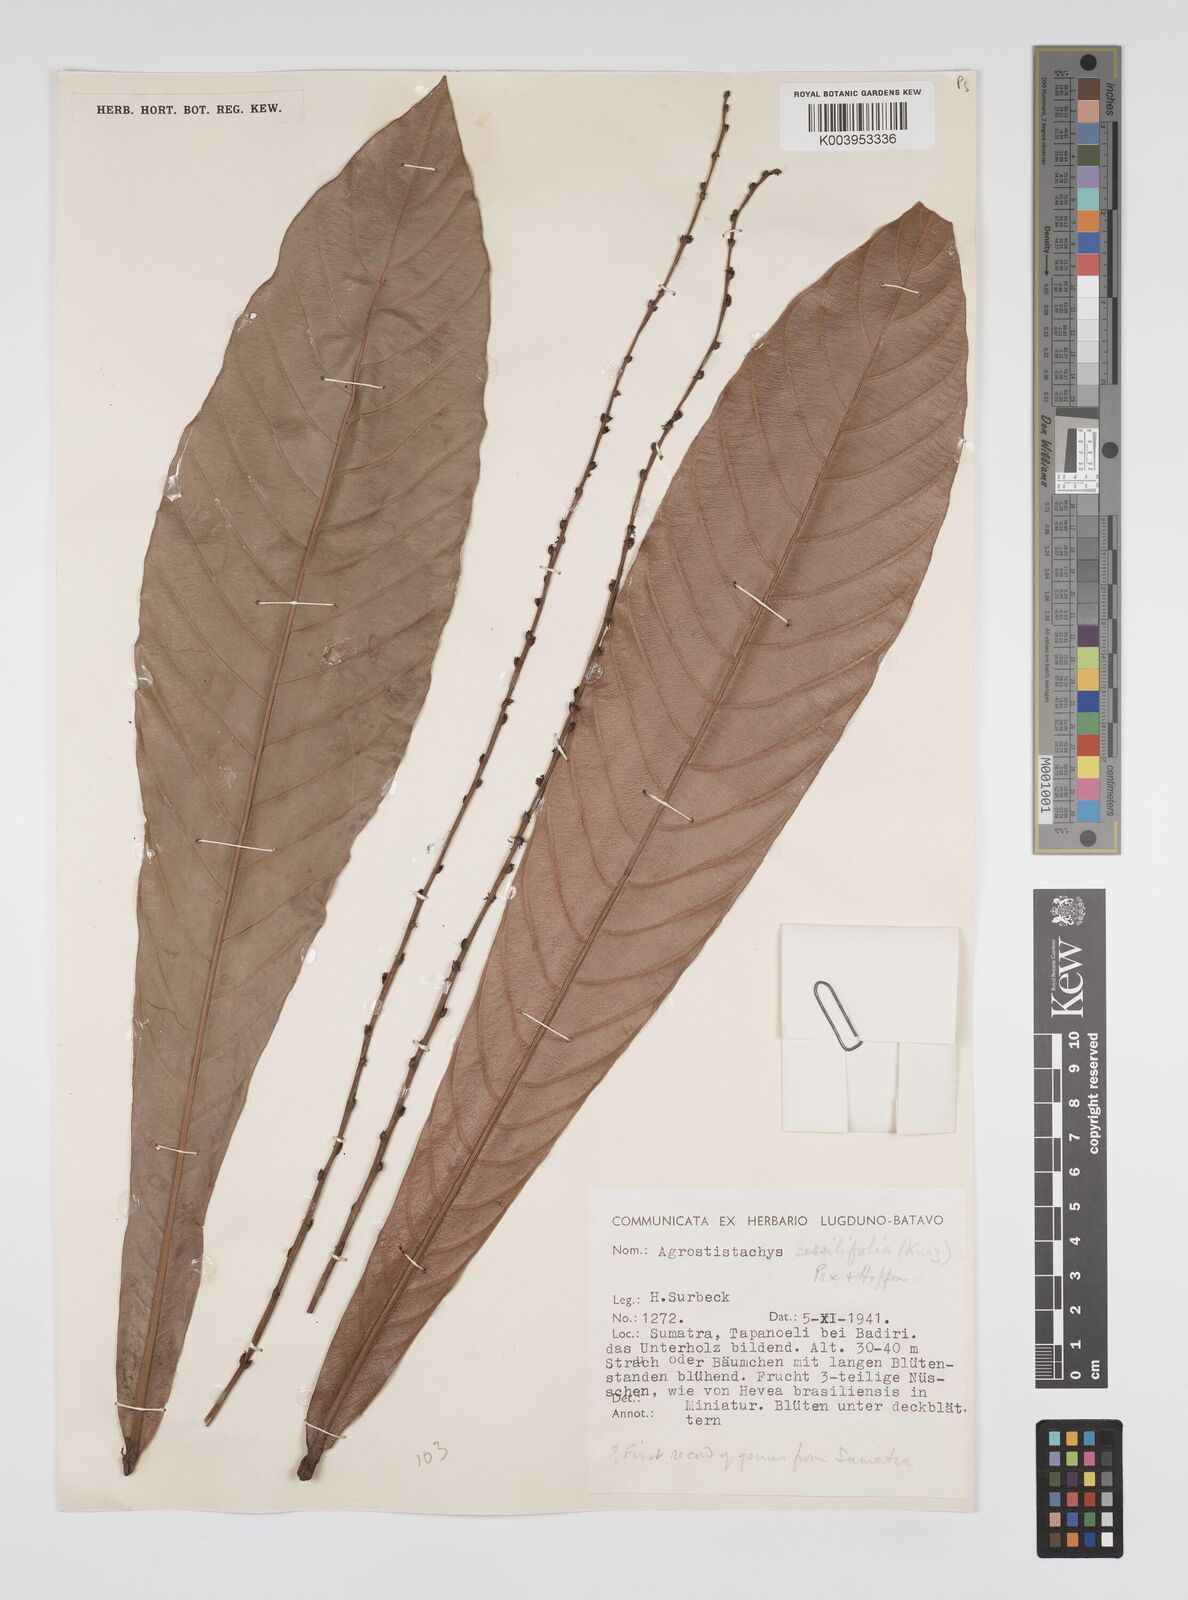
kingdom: Plantae
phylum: Tracheophyta
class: Magnoliopsida
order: Malpighiales
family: Euphorbiaceae
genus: Agrostistachys
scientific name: Agrostistachys sessilifolia
